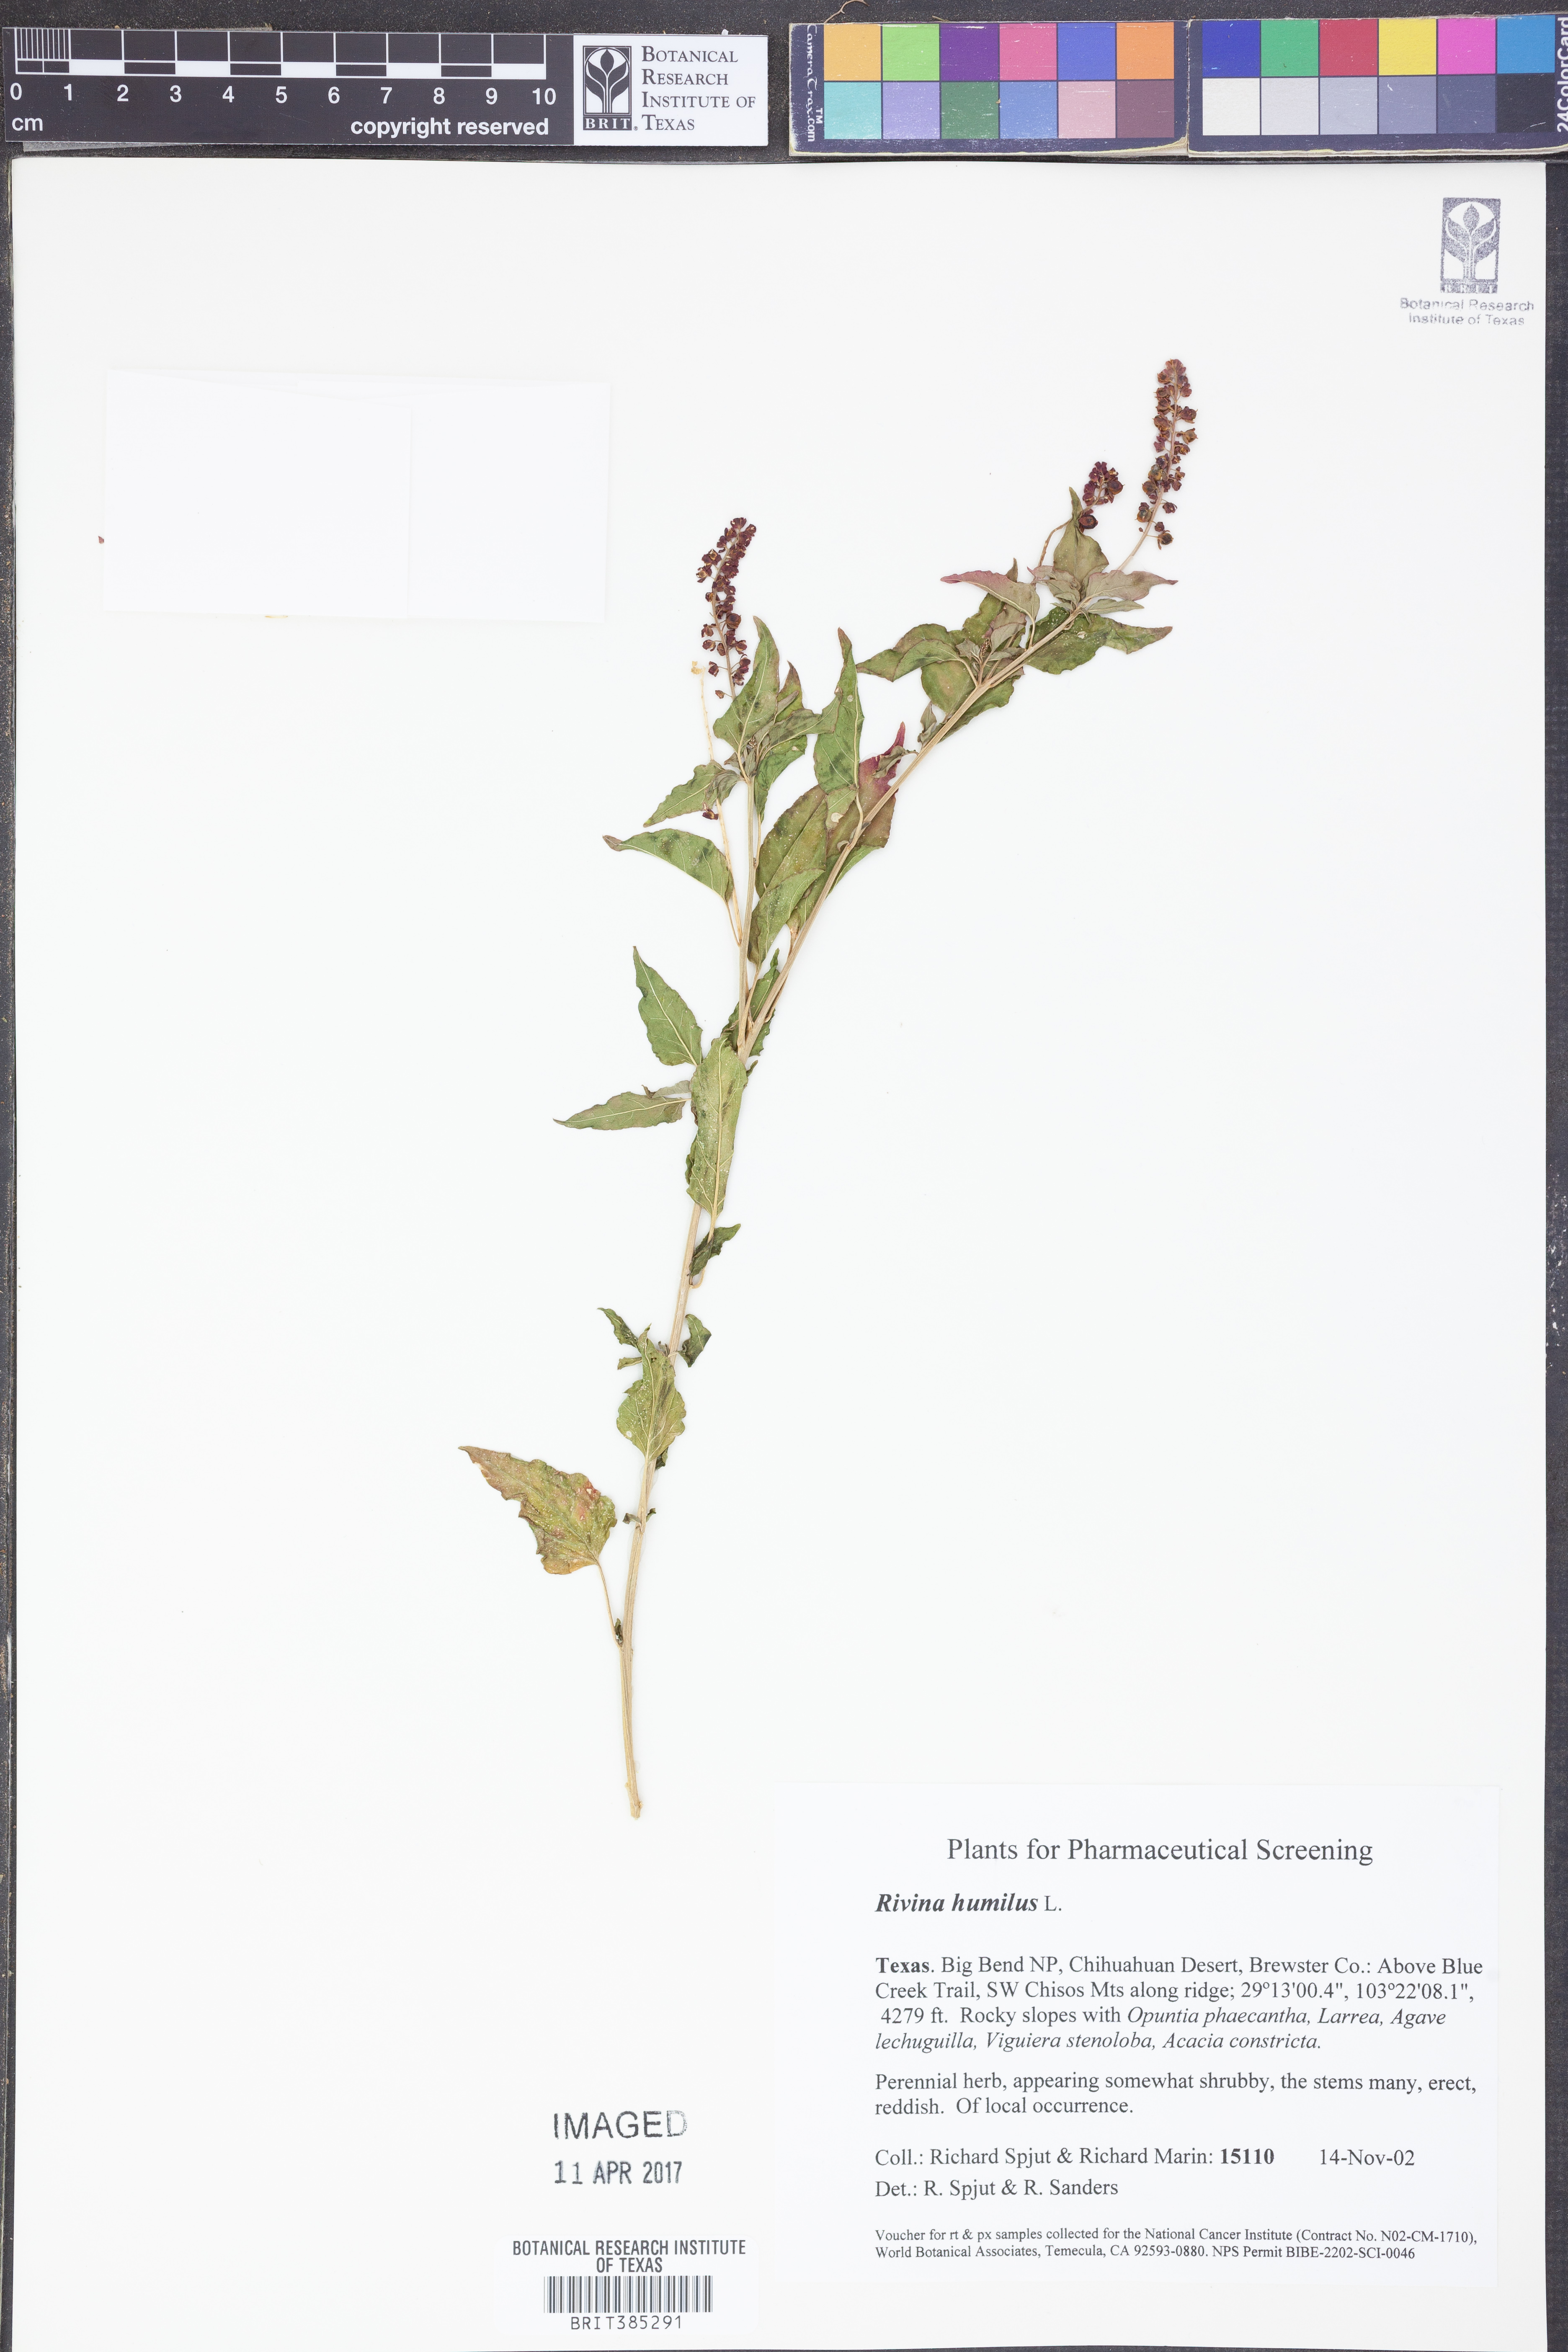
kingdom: Plantae
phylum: Tracheophyta
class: Magnoliopsida
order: Caryophyllales
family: Phytolaccaceae
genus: Rivina
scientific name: Rivina humilis
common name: Rougeplant
